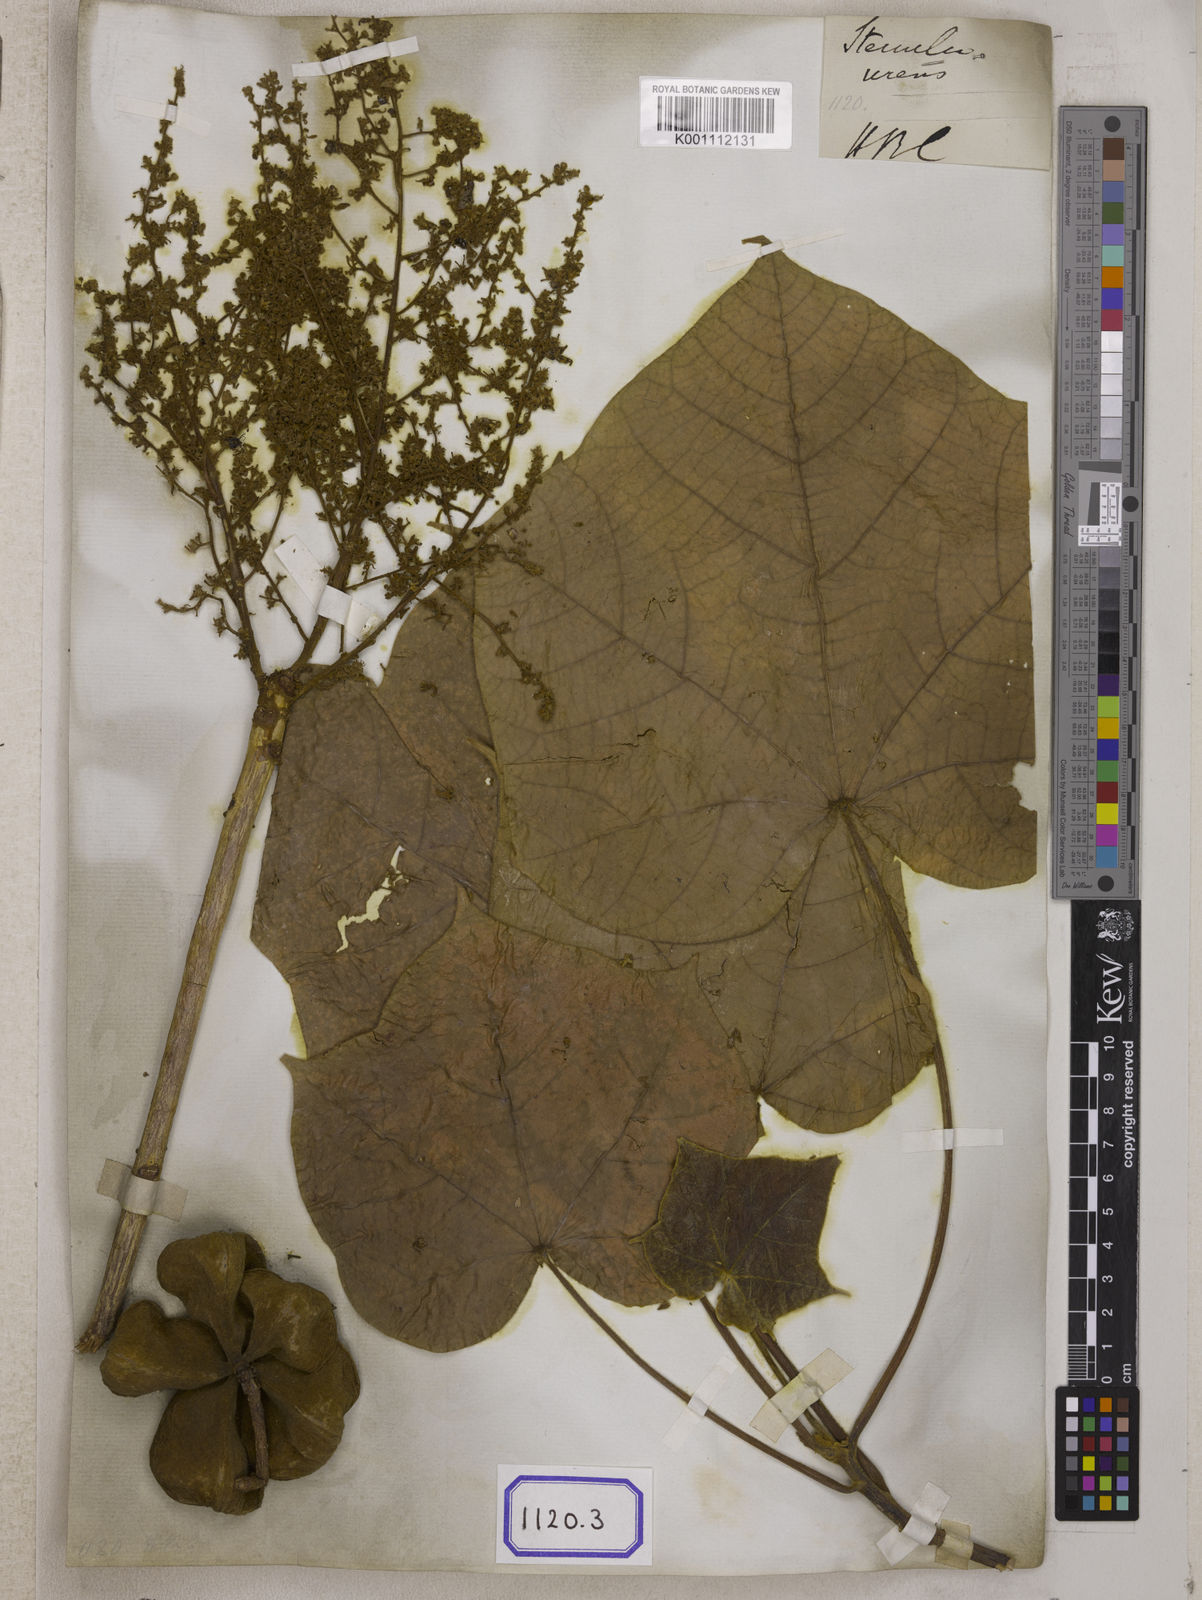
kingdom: Plantae
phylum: Tracheophyta
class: Magnoliopsida
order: Malvales
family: Malvaceae
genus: Sterculia
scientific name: Sterculia urens
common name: Indian-tragacanth
